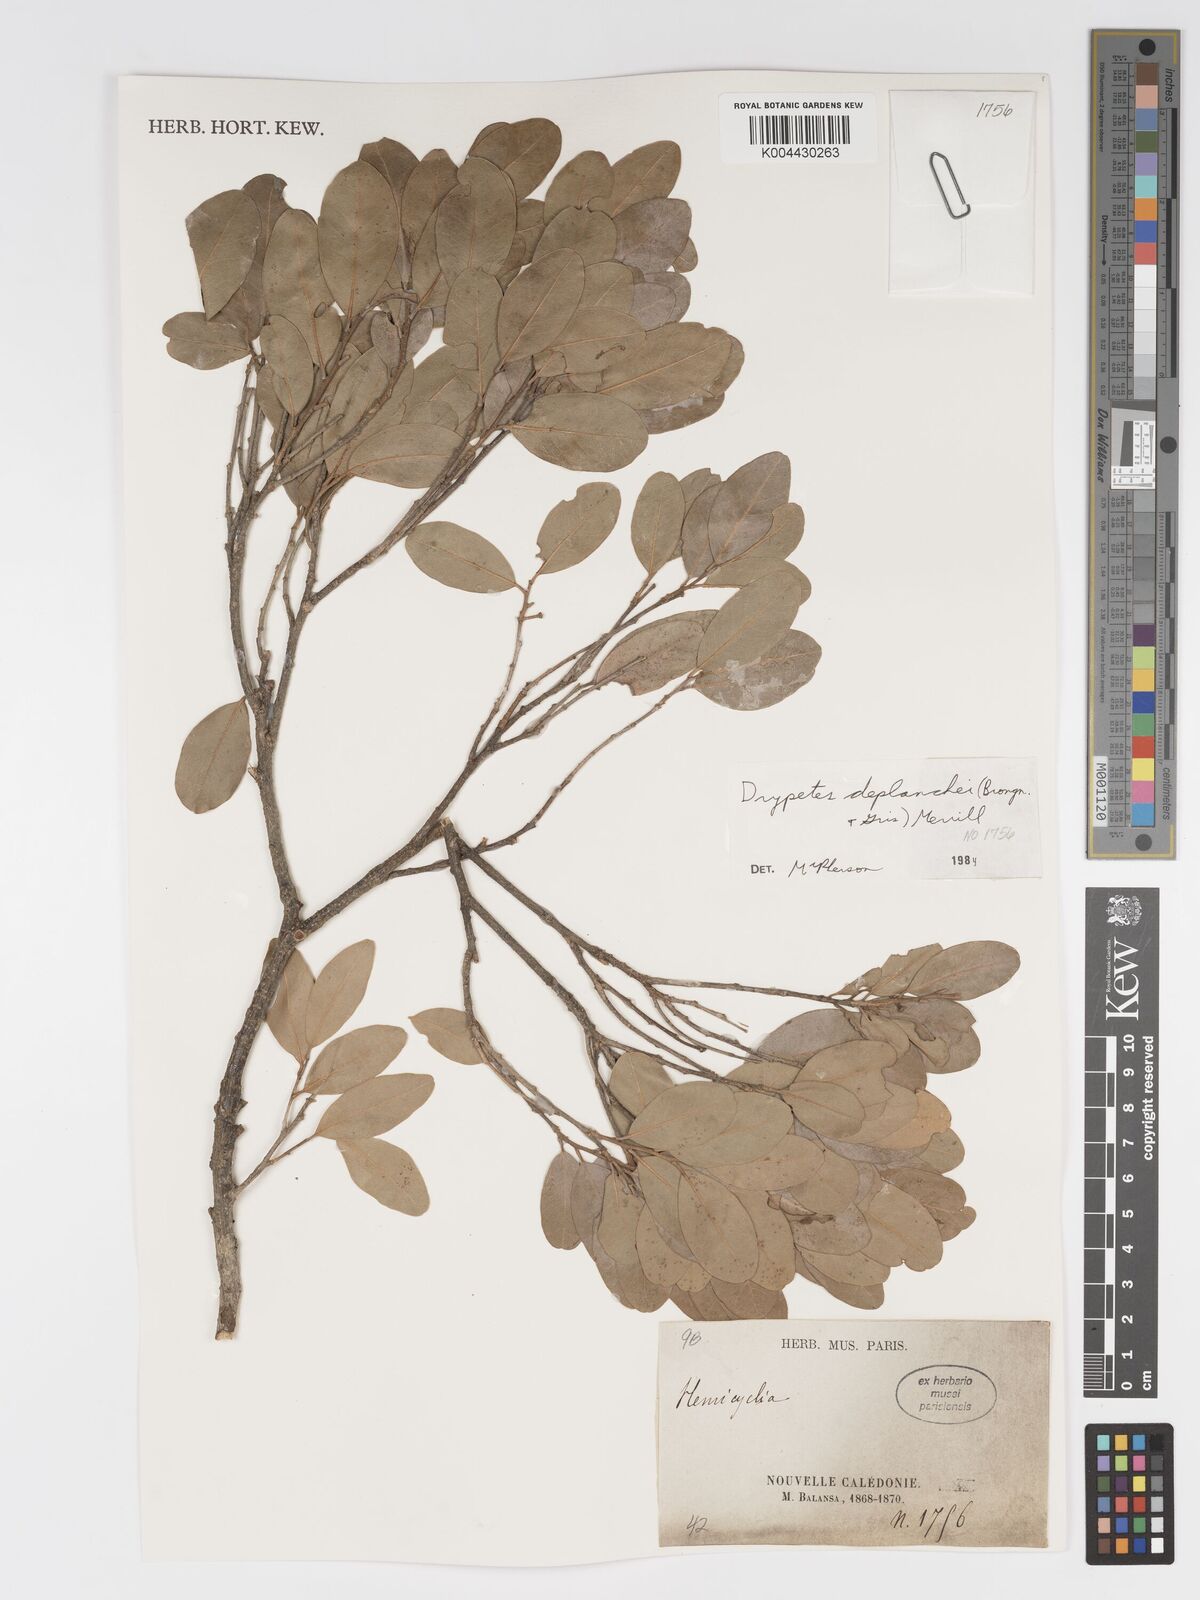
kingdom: Plantae
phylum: Tracheophyta
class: Magnoliopsida
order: Malpighiales
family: Putranjivaceae
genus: Drypetes
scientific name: Drypetes deplanchei
